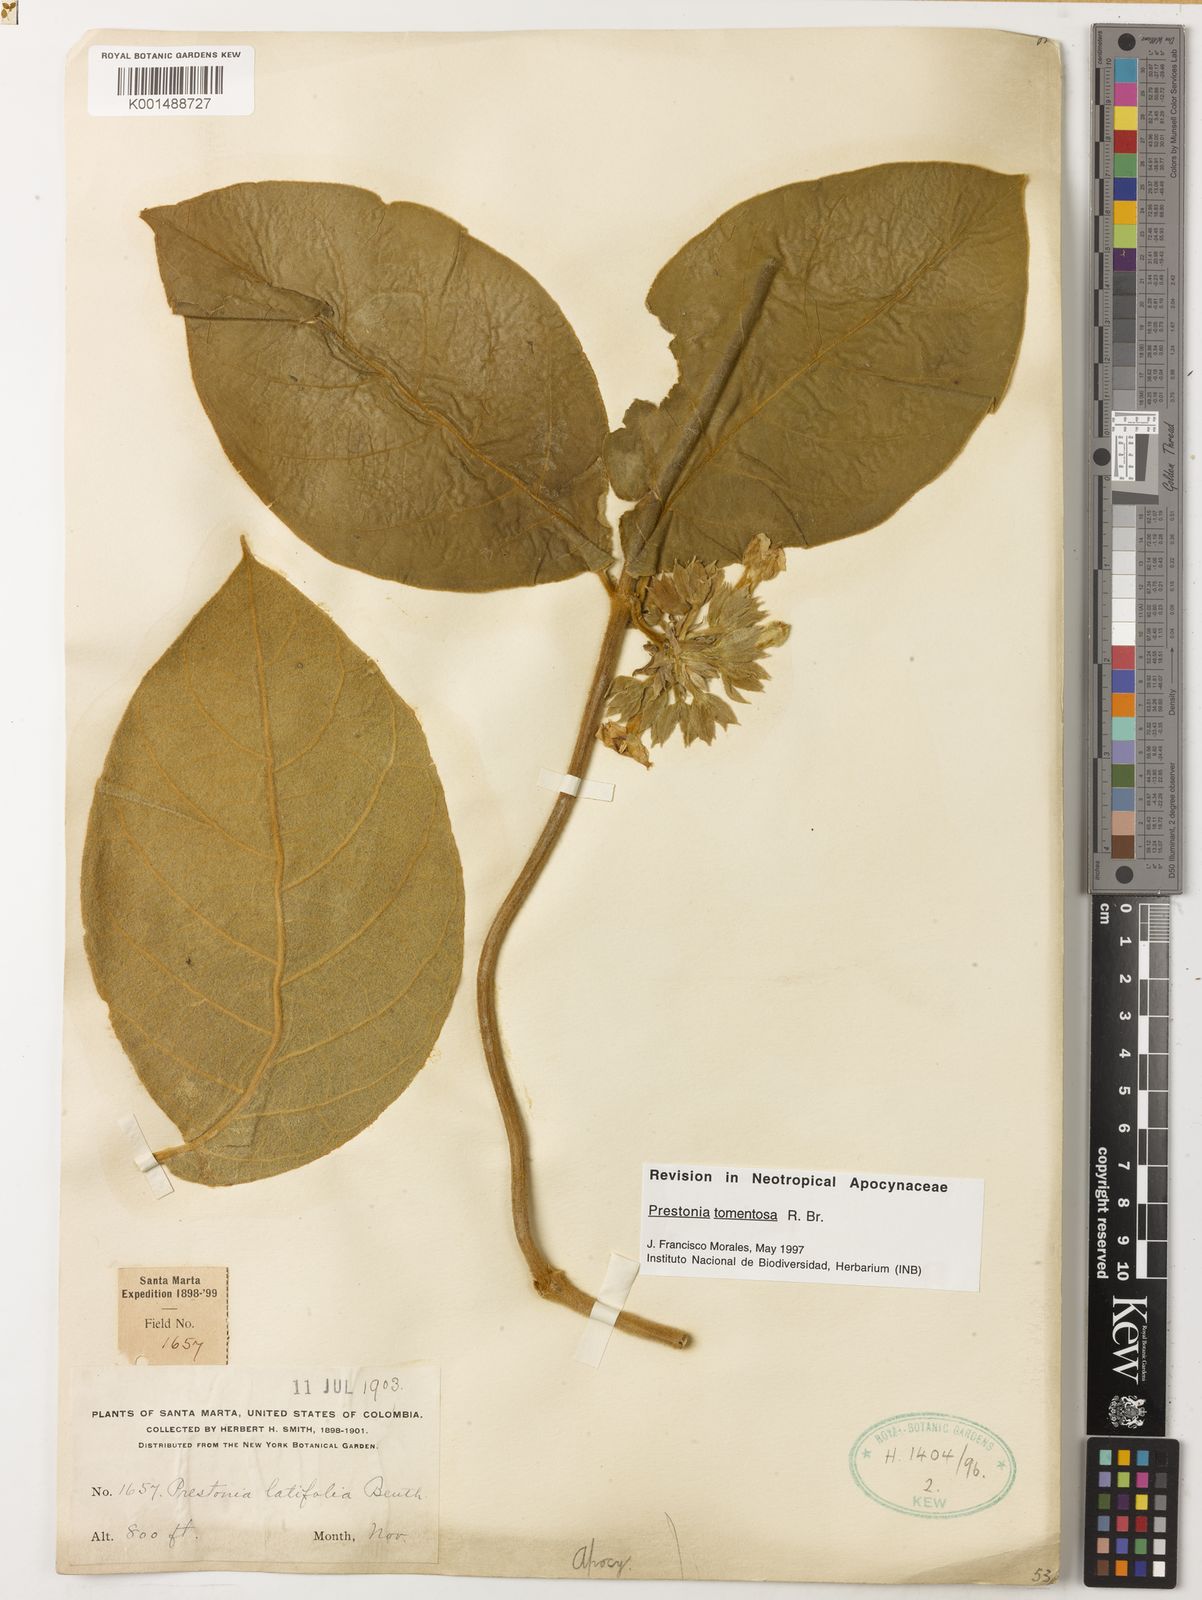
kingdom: Plantae
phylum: Tracheophyta
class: Magnoliopsida
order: Gentianales
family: Apocynaceae
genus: Prestonia
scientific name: Prestonia tomentosa
